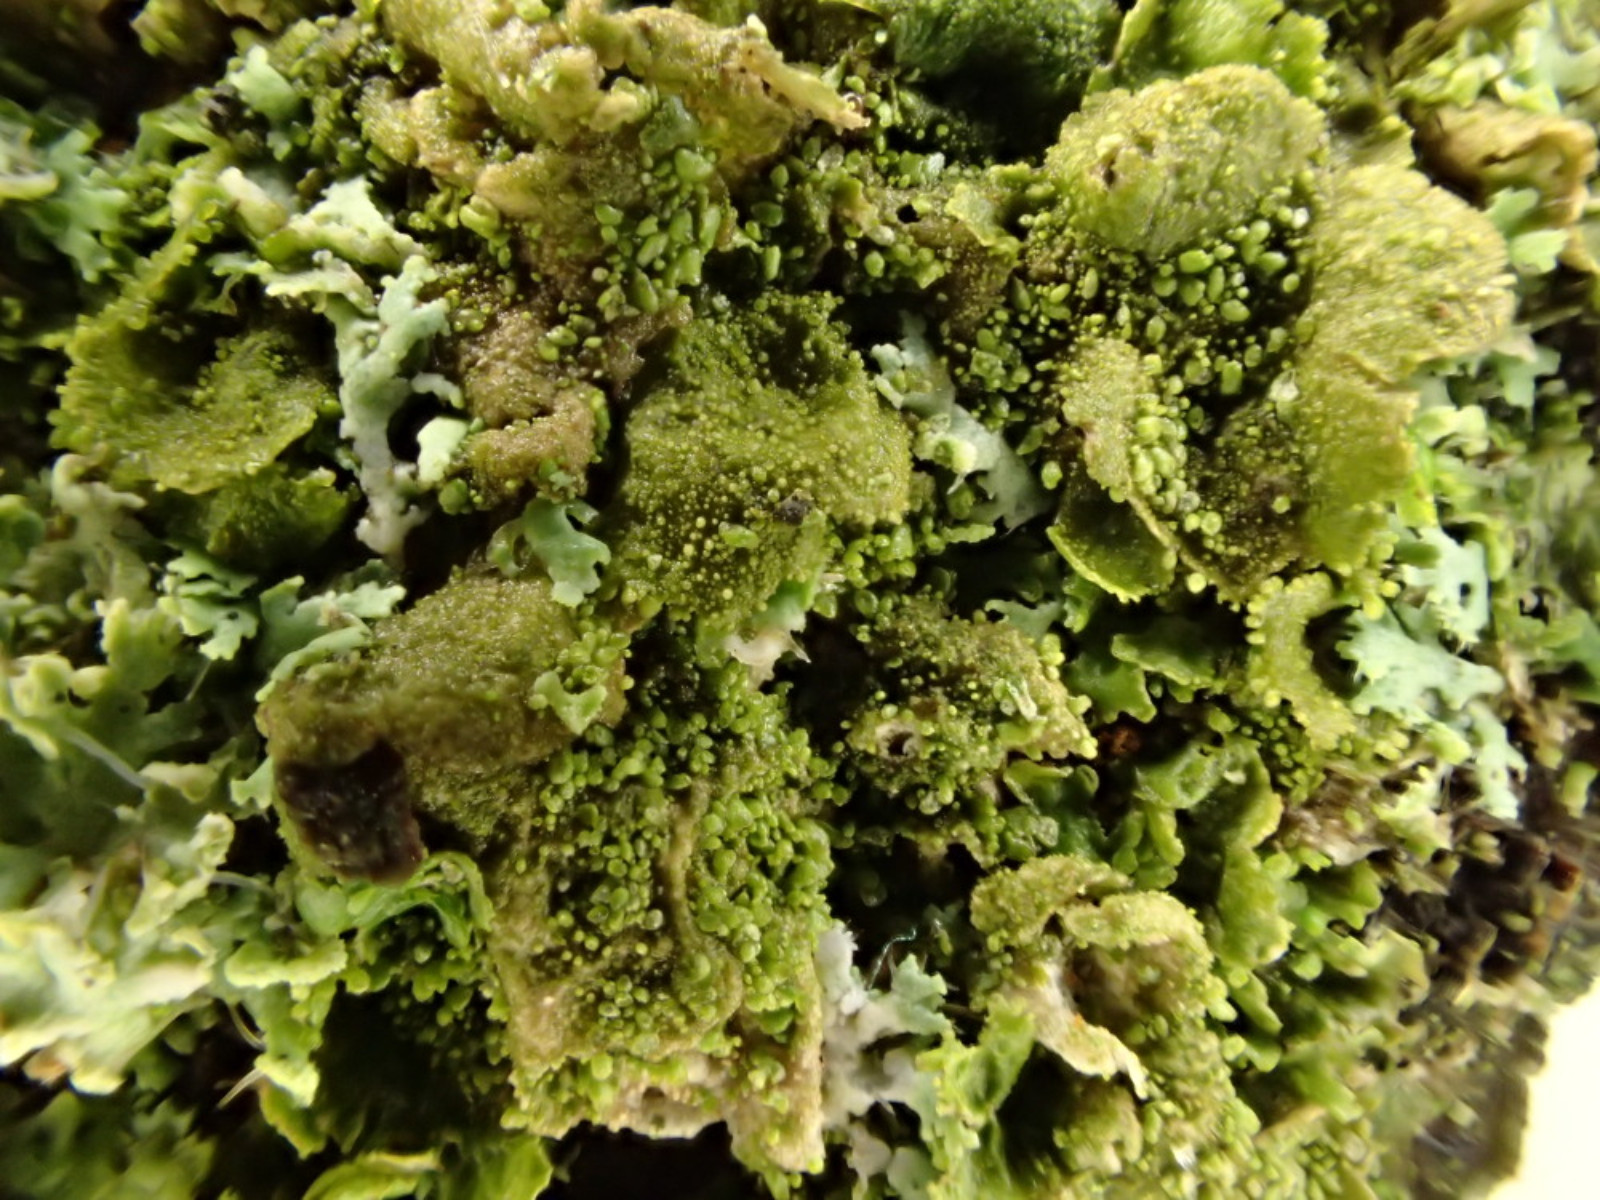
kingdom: Fungi
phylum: Ascomycota
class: Lecanoromycetes
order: Lecanorales
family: Parmeliaceae
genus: Melanohalea
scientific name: Melanohalea exasperatula
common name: kølle-skållav
